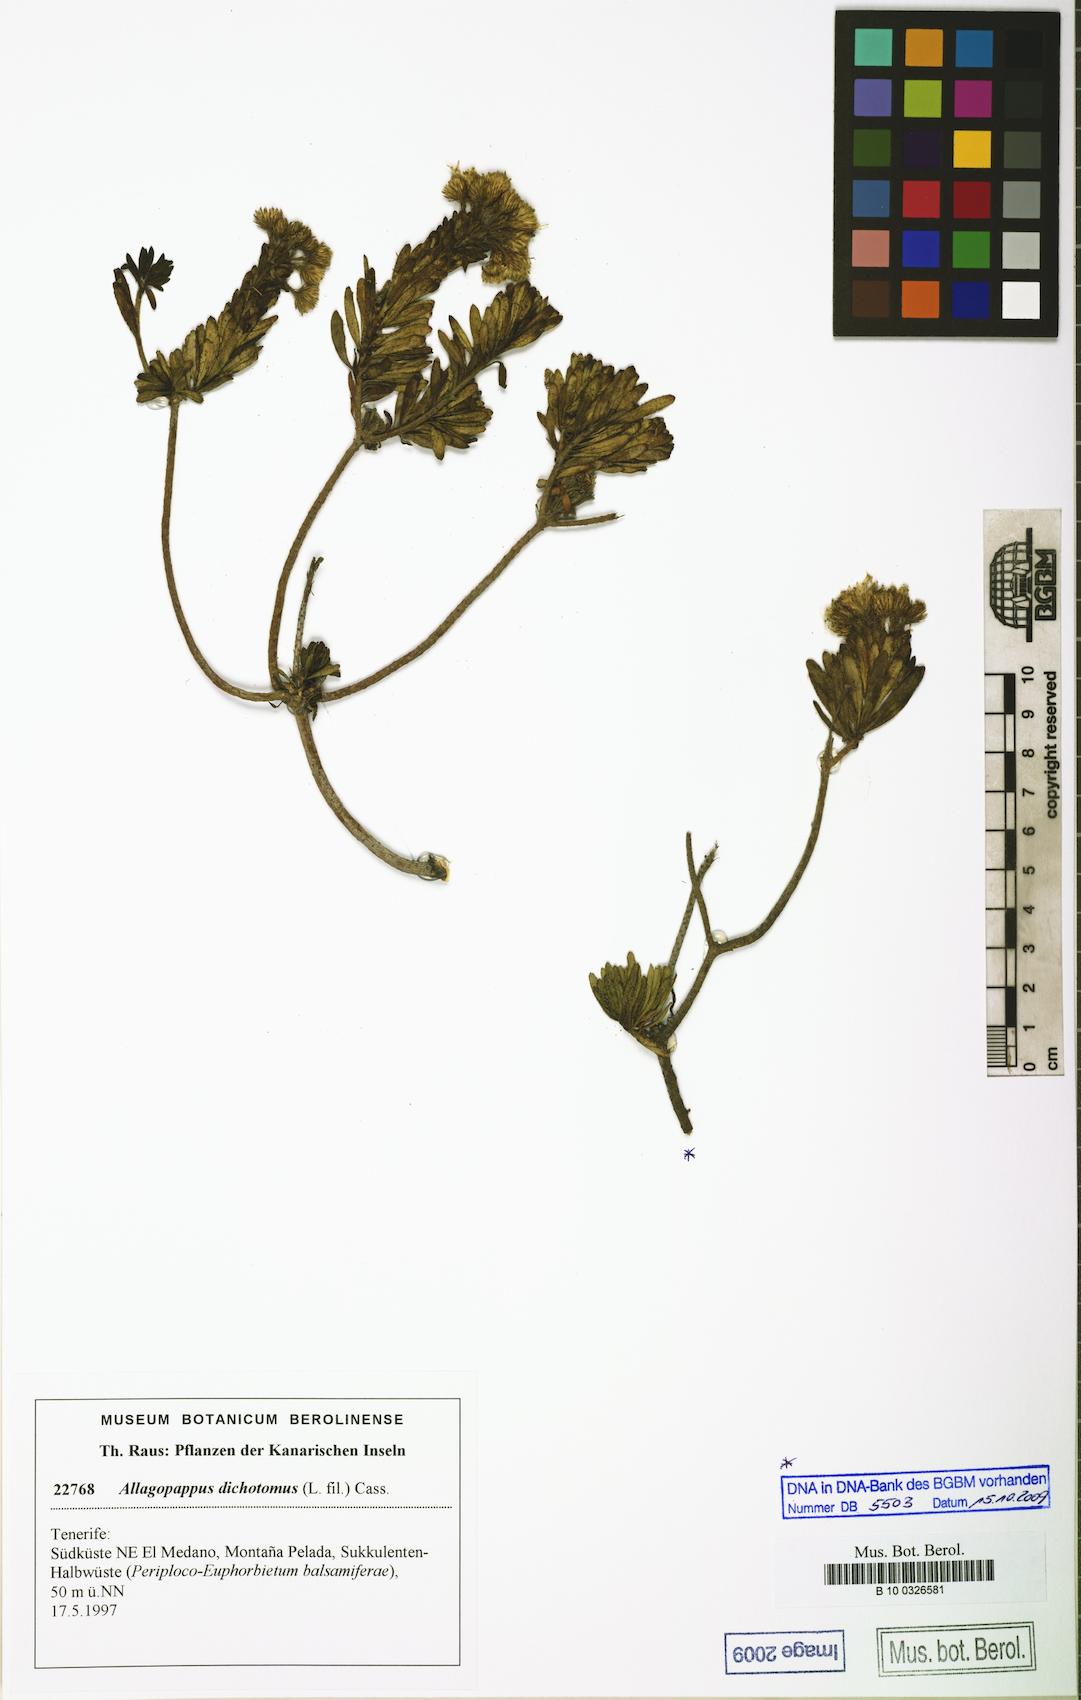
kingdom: Plantae
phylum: Tracheophyta
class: Magnoliopsida
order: Asterales
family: Asteraceae
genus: Allagopappus
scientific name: Allagopappus canariensis
